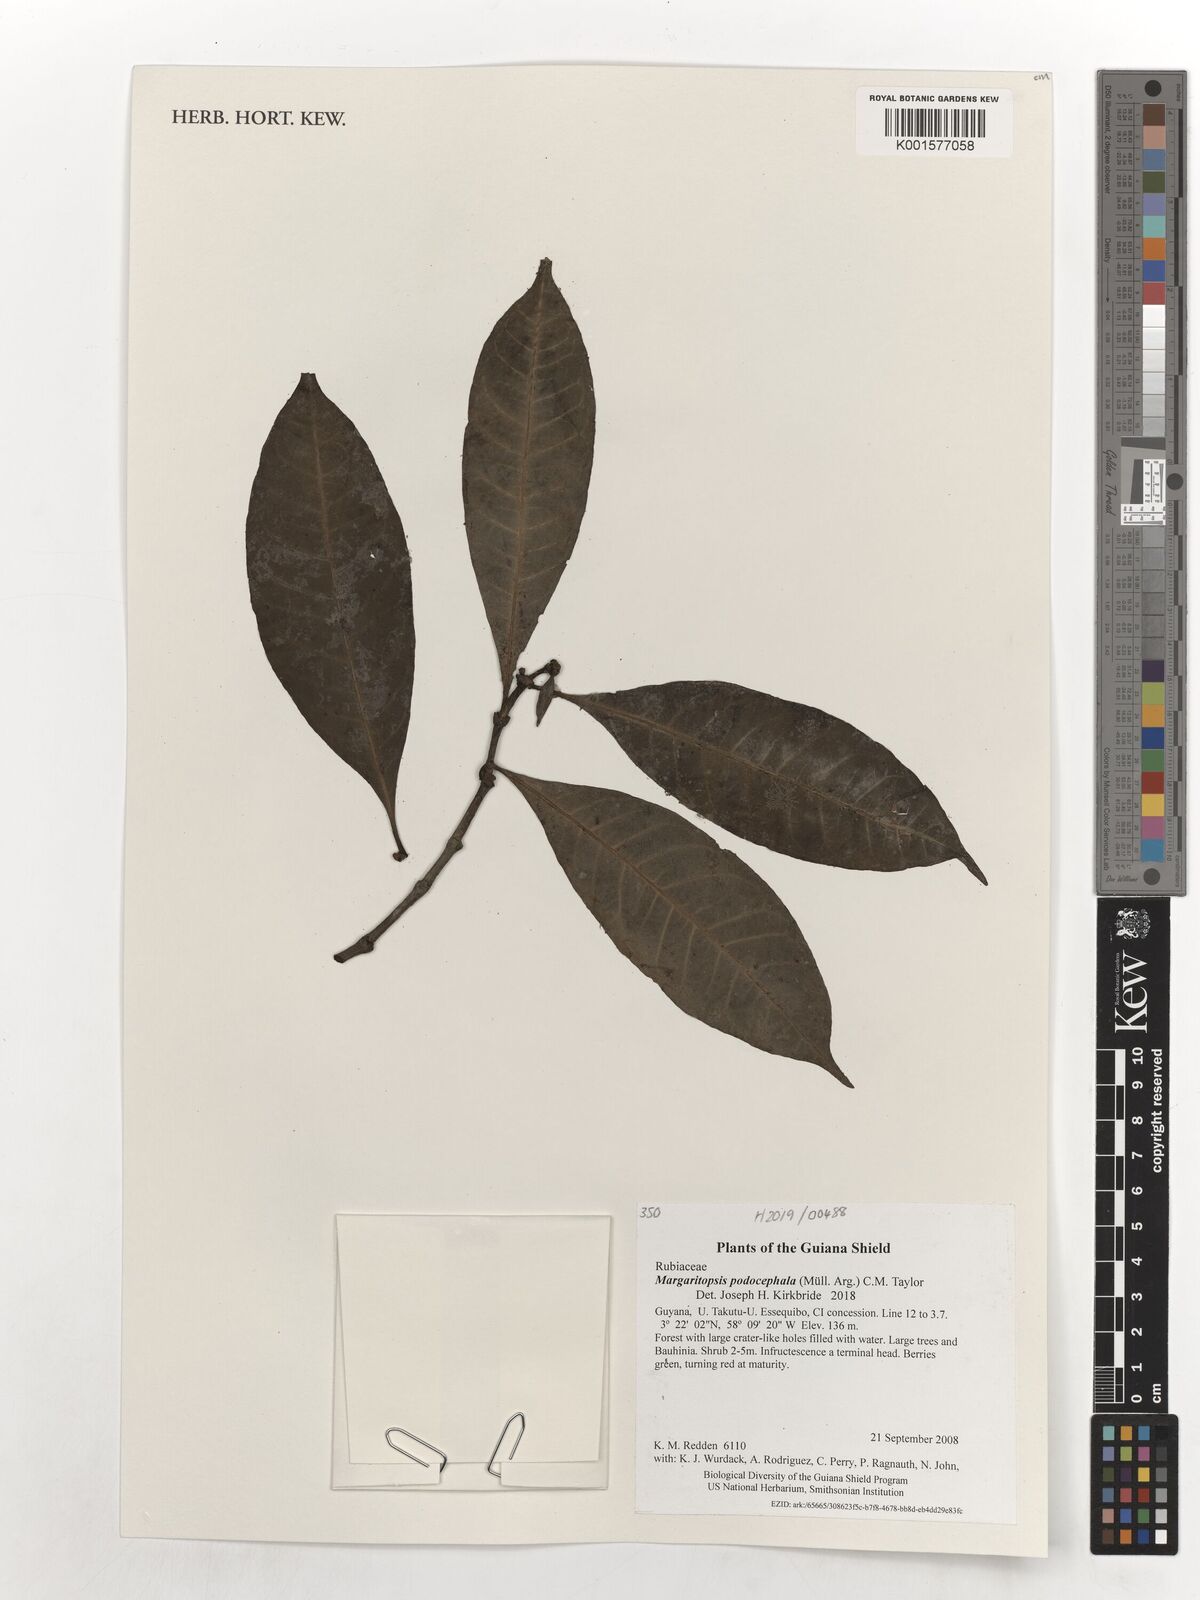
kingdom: Plantae
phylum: Tracheophyta
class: Magnoliopsida
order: Gentianales
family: Rubiaceae
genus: Eumachia
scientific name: Eumachia podocephala
